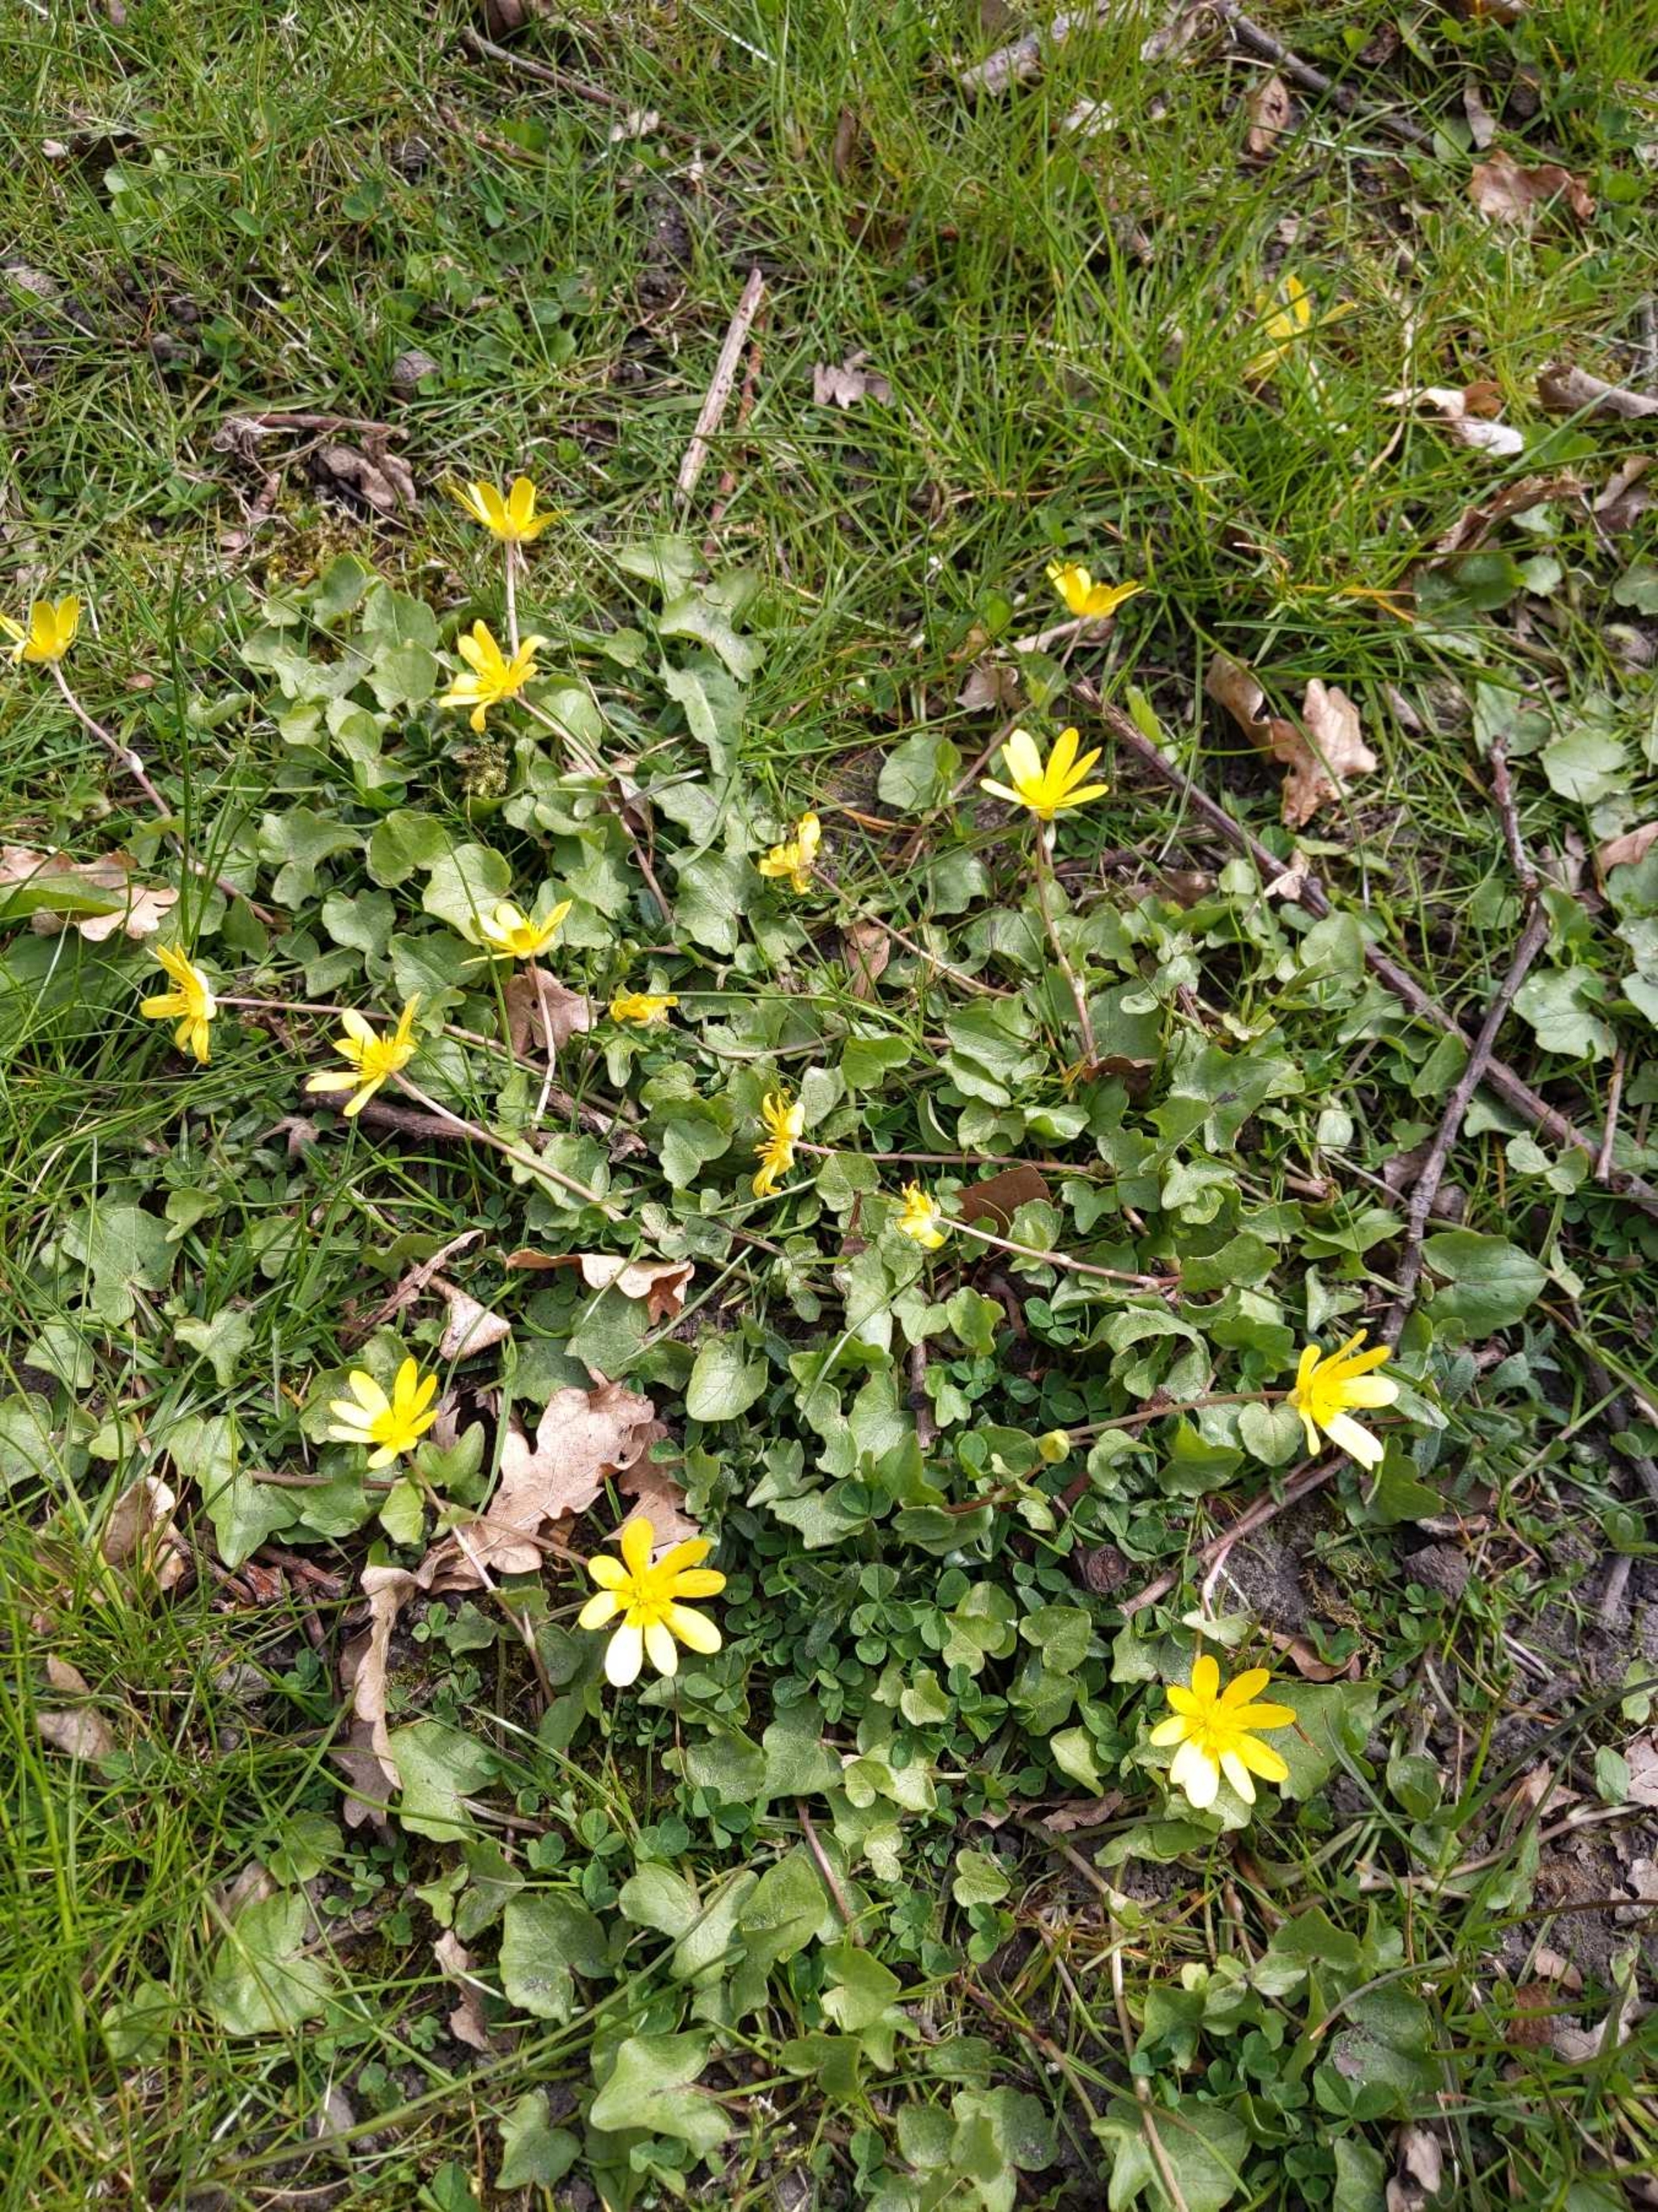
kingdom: Plantae
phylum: Tracheophyta
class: Magnoliopsida
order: Ranunculales
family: Ranunculaceae
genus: Ficaria
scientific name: Ficaria verna
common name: Vorterod
